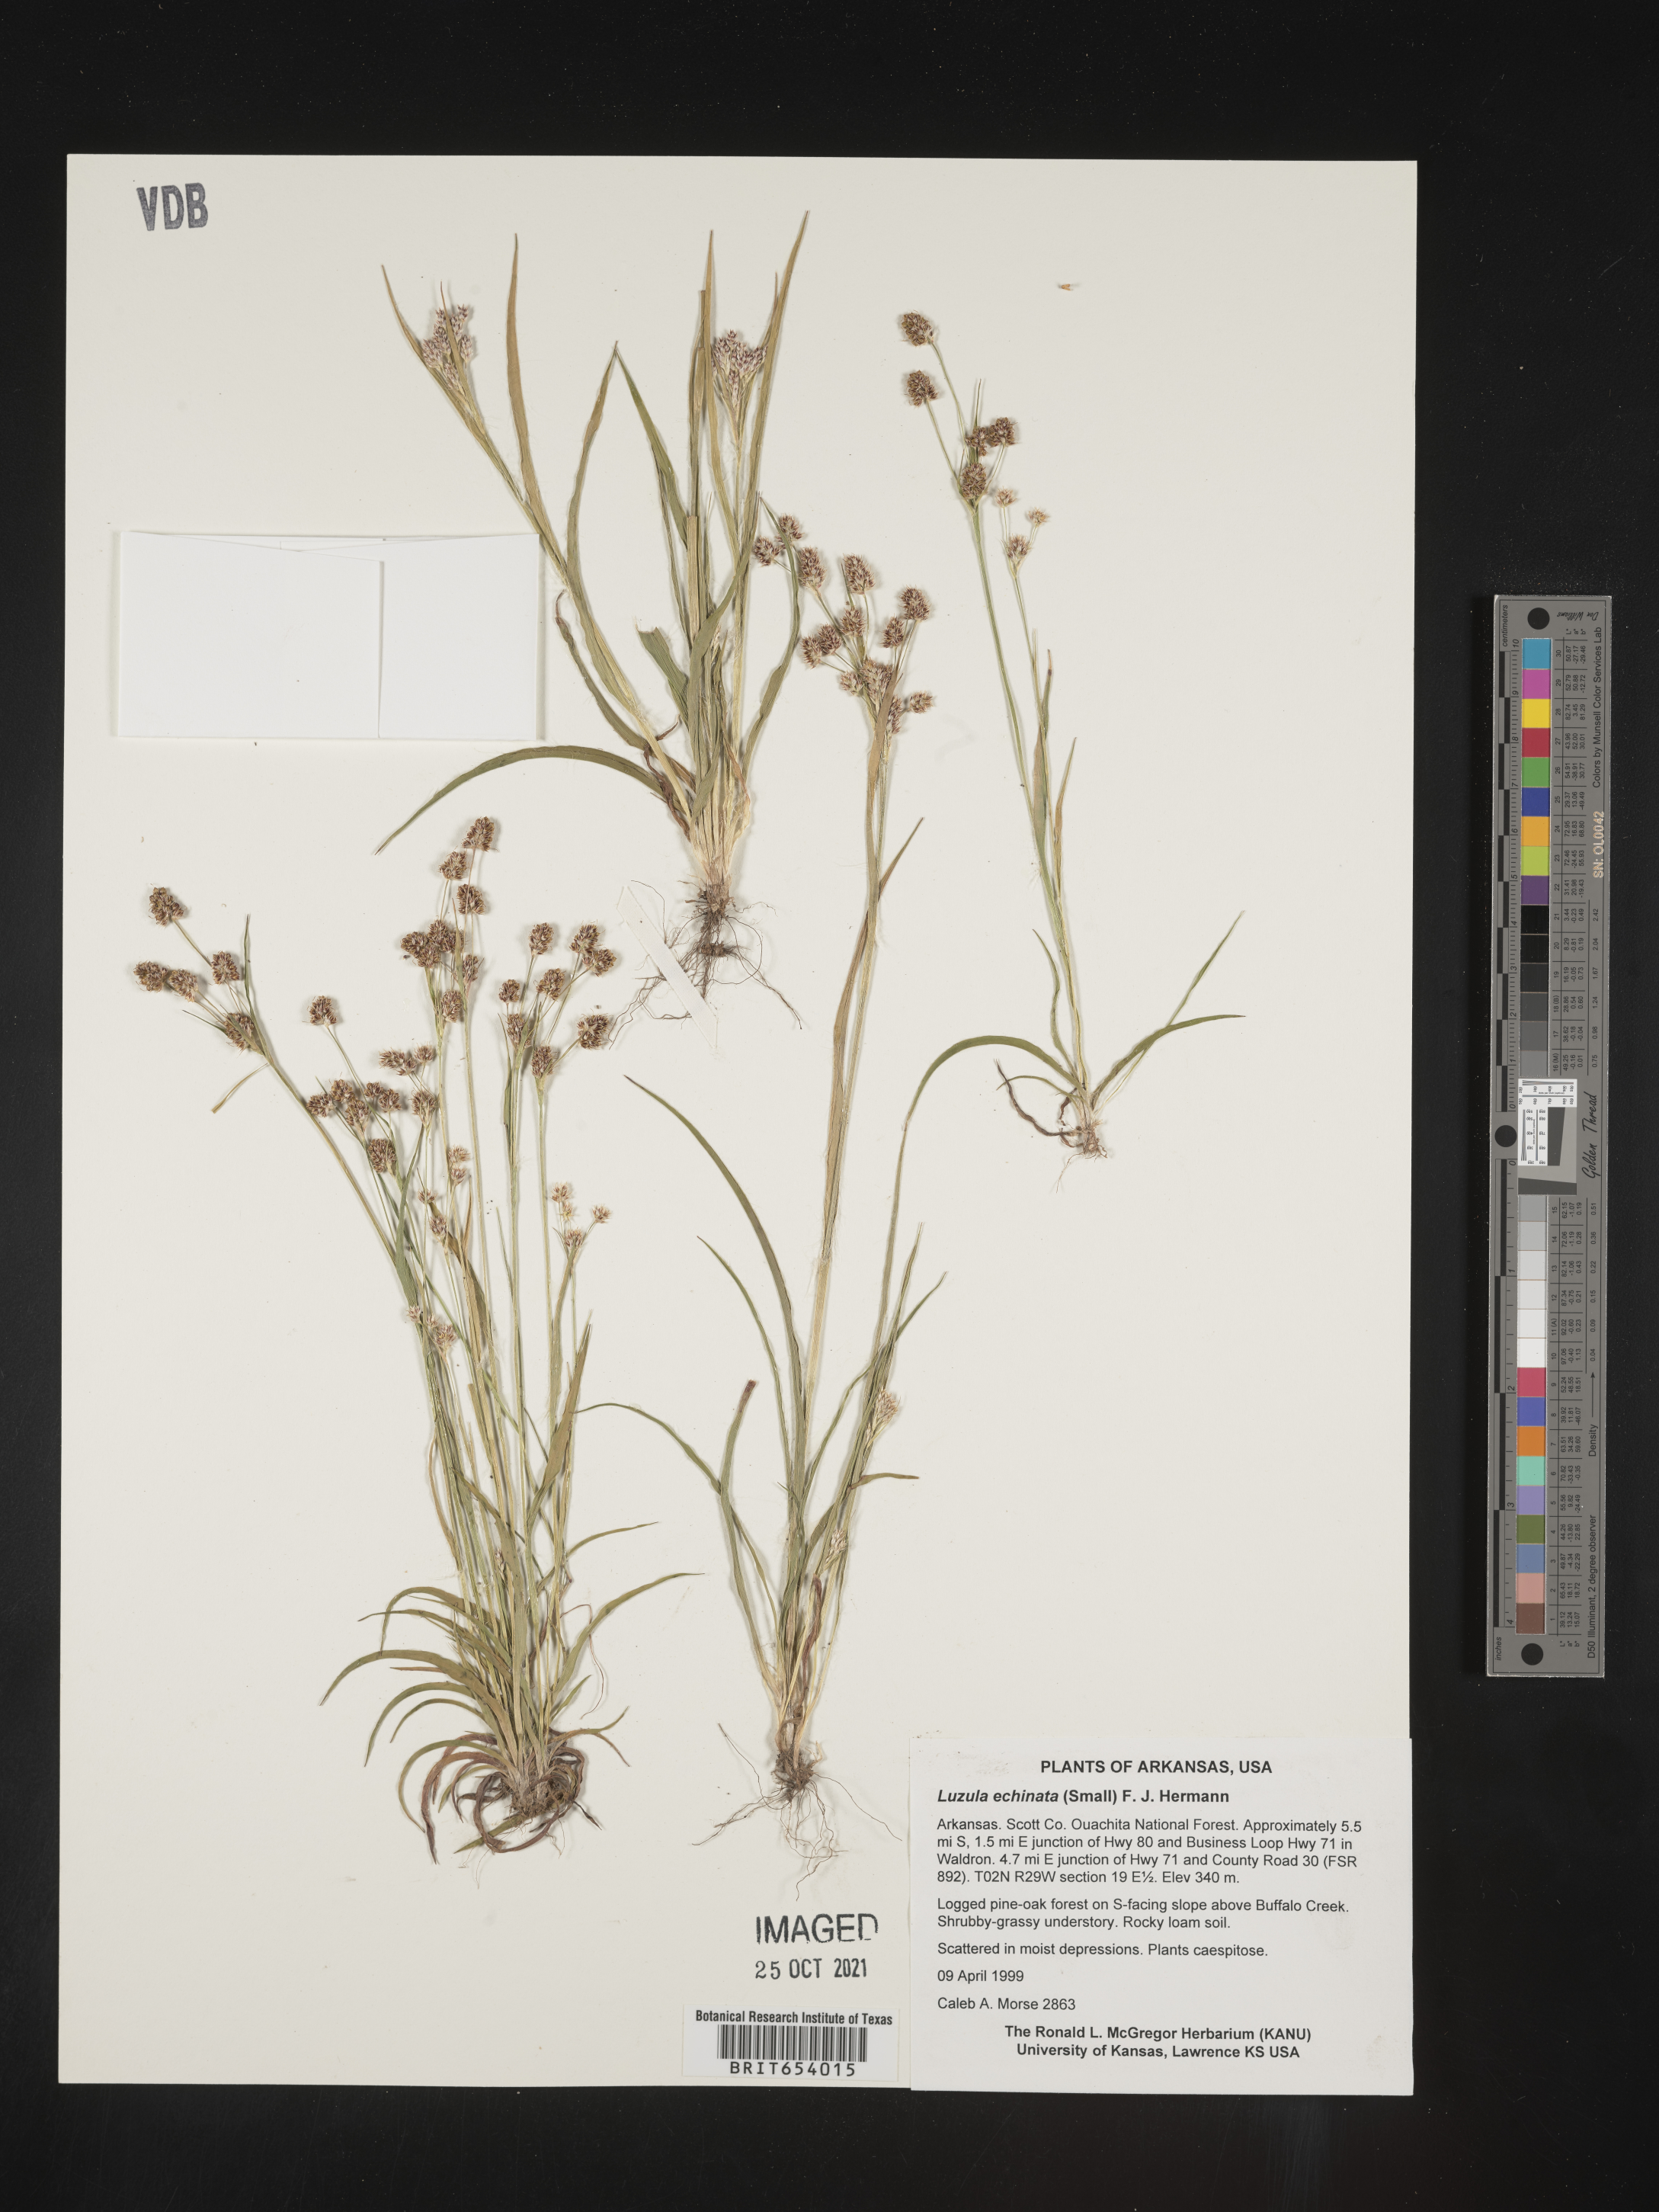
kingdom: Plantae
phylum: Tracheophyta
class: Liliopsida
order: Poales
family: Juncaceae
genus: Luzula
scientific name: Luzula echinata
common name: Hedgehog woodrush
